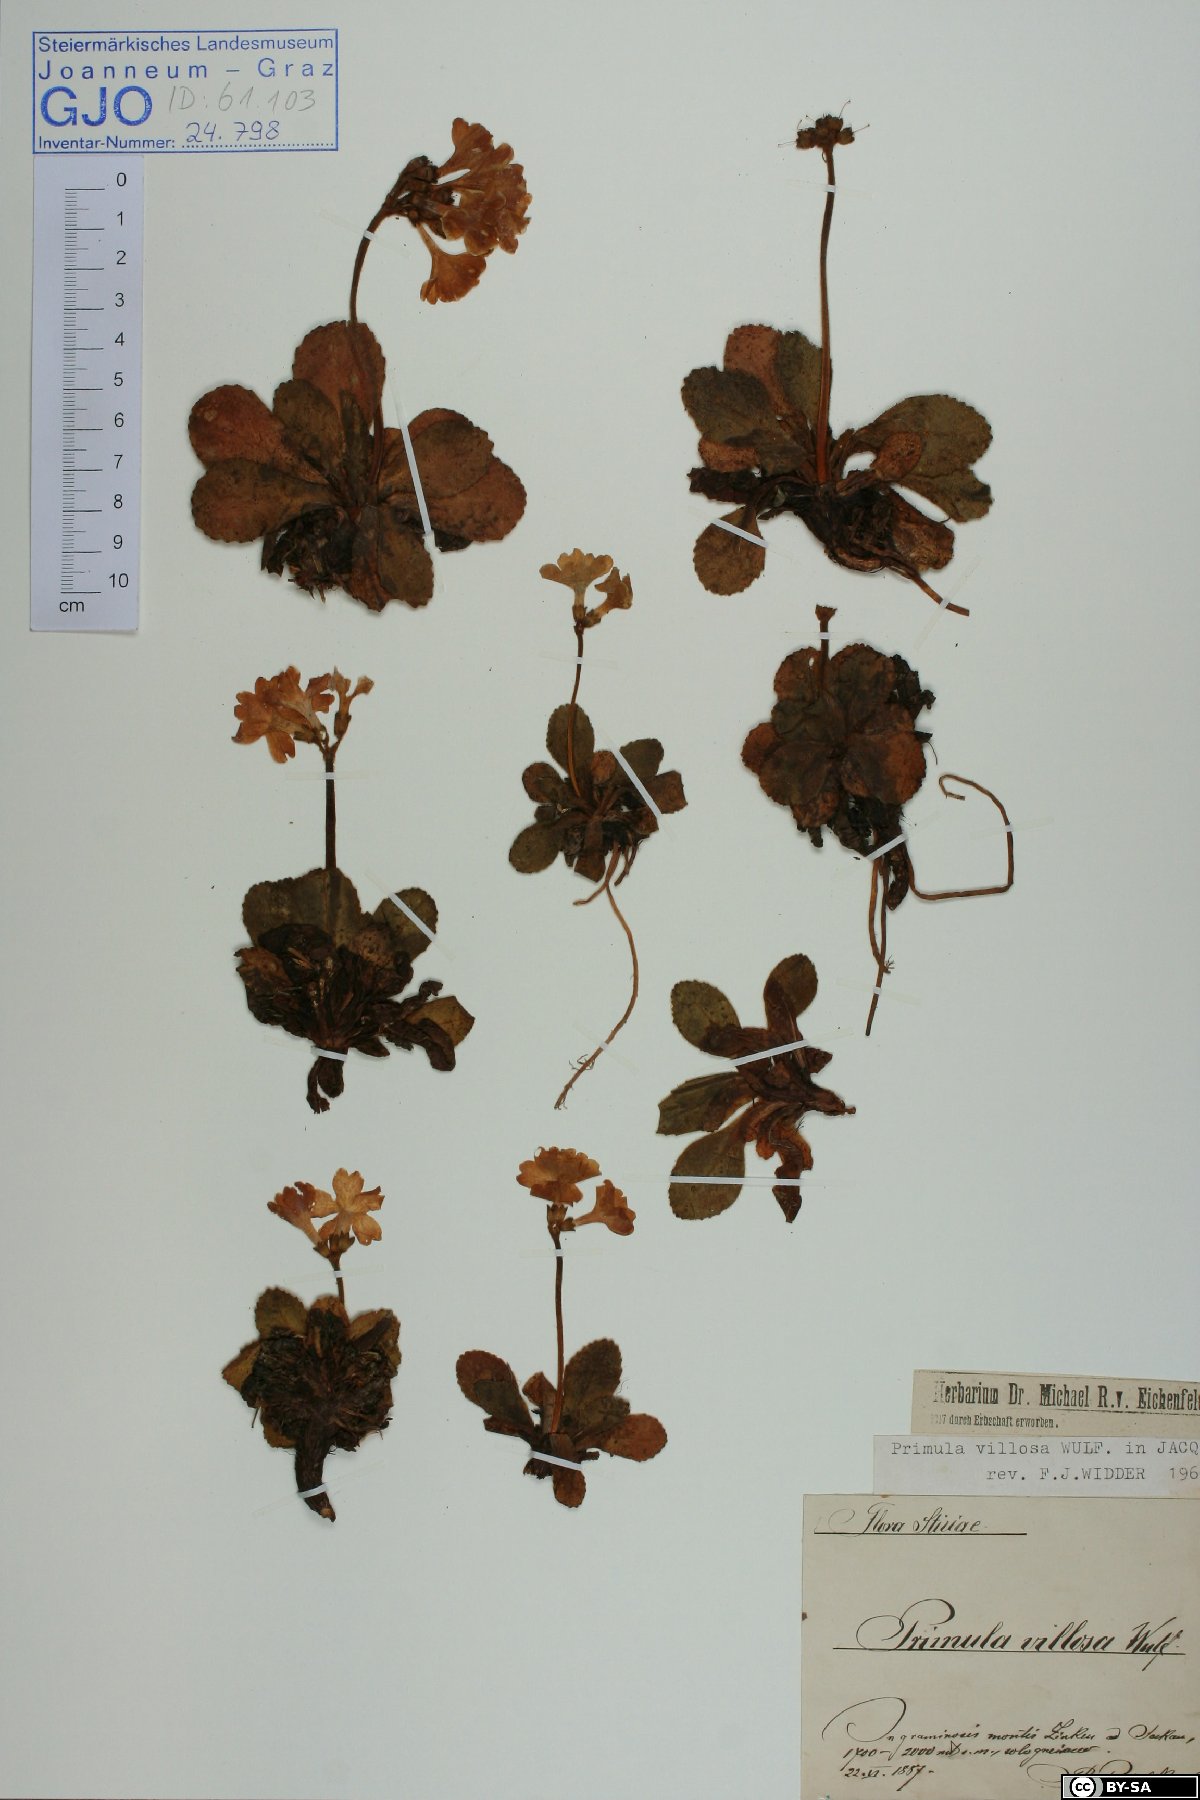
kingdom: Plantae
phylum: Tracheophyta
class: Magnoliopsida
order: Ericales
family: Primulaceae
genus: Primula
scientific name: Primula villosa
